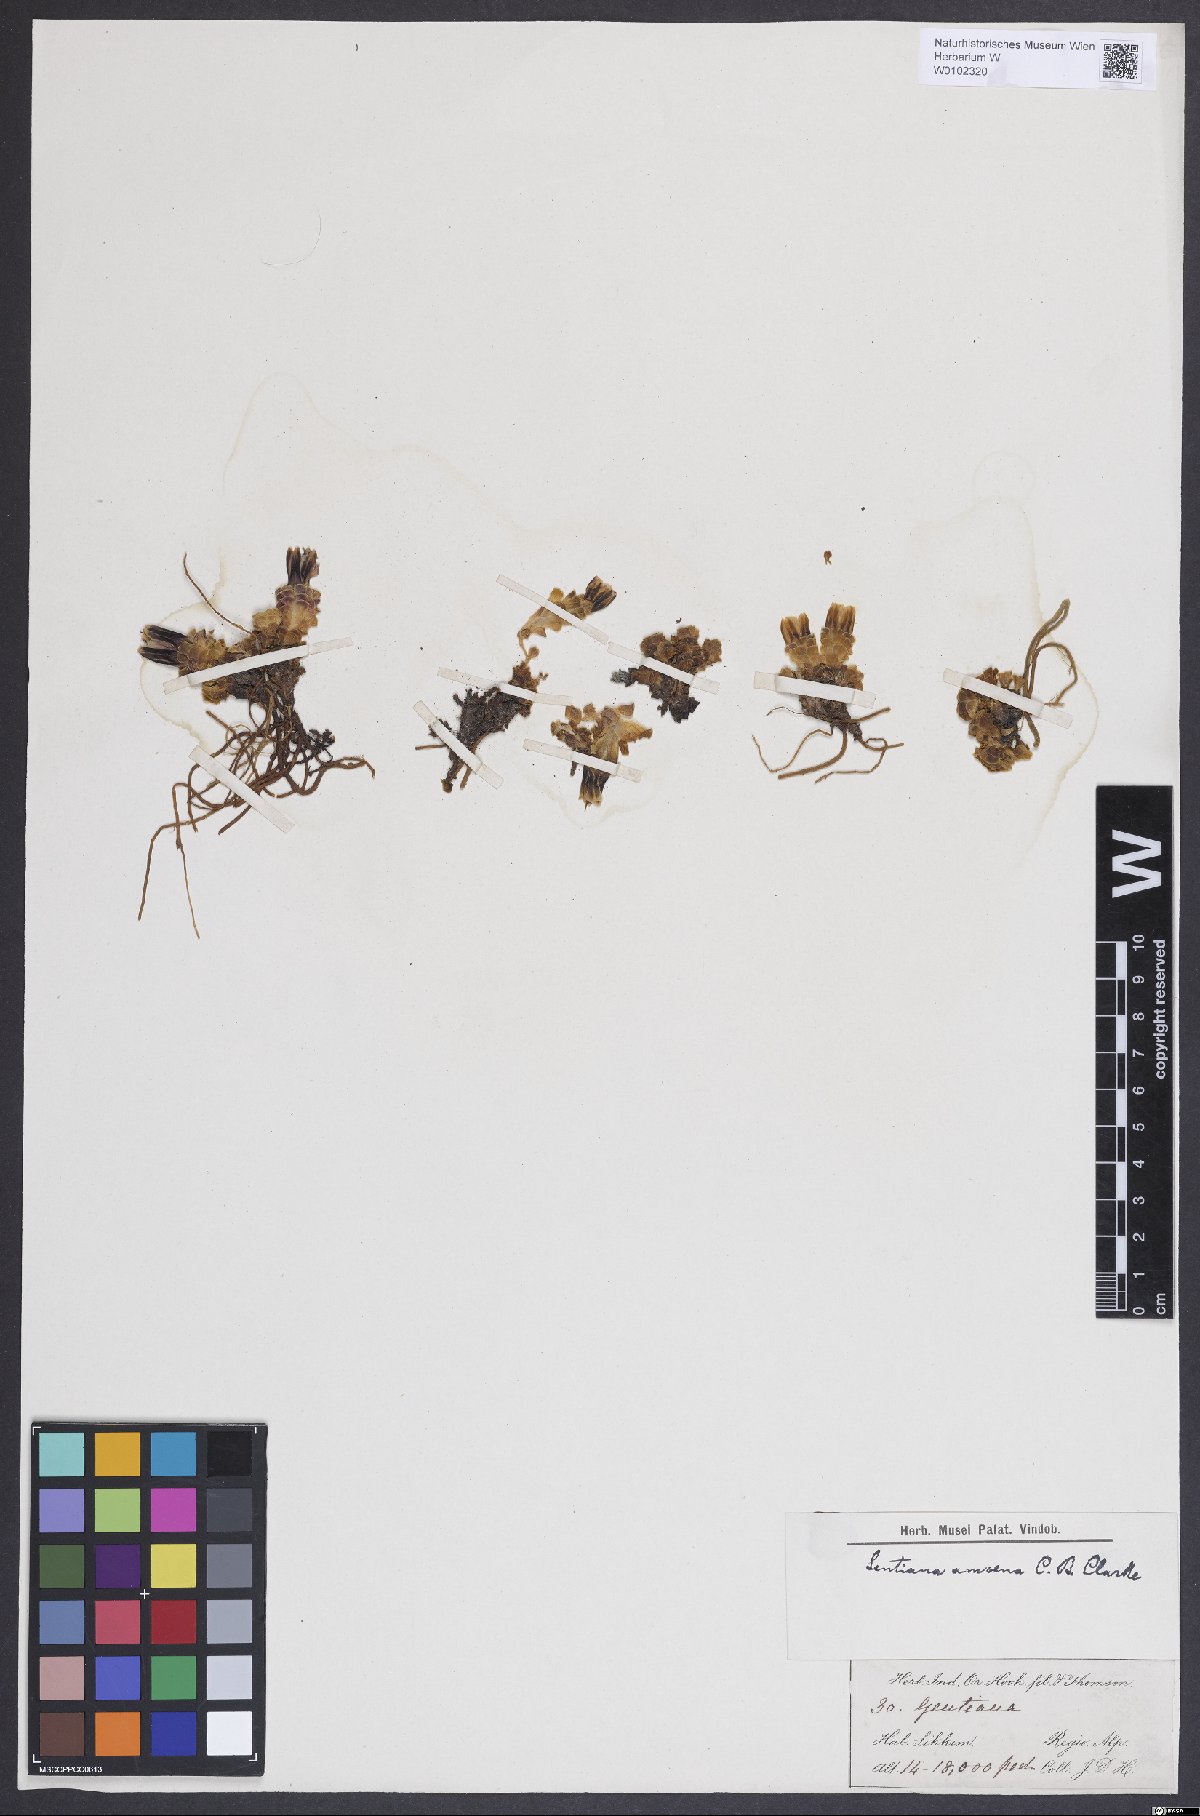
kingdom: Plantae
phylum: Tracheophyta
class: Magnoliopsida
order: Gentianales
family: Gentianaceae
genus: Gentiana
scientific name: Gentiana emodi
